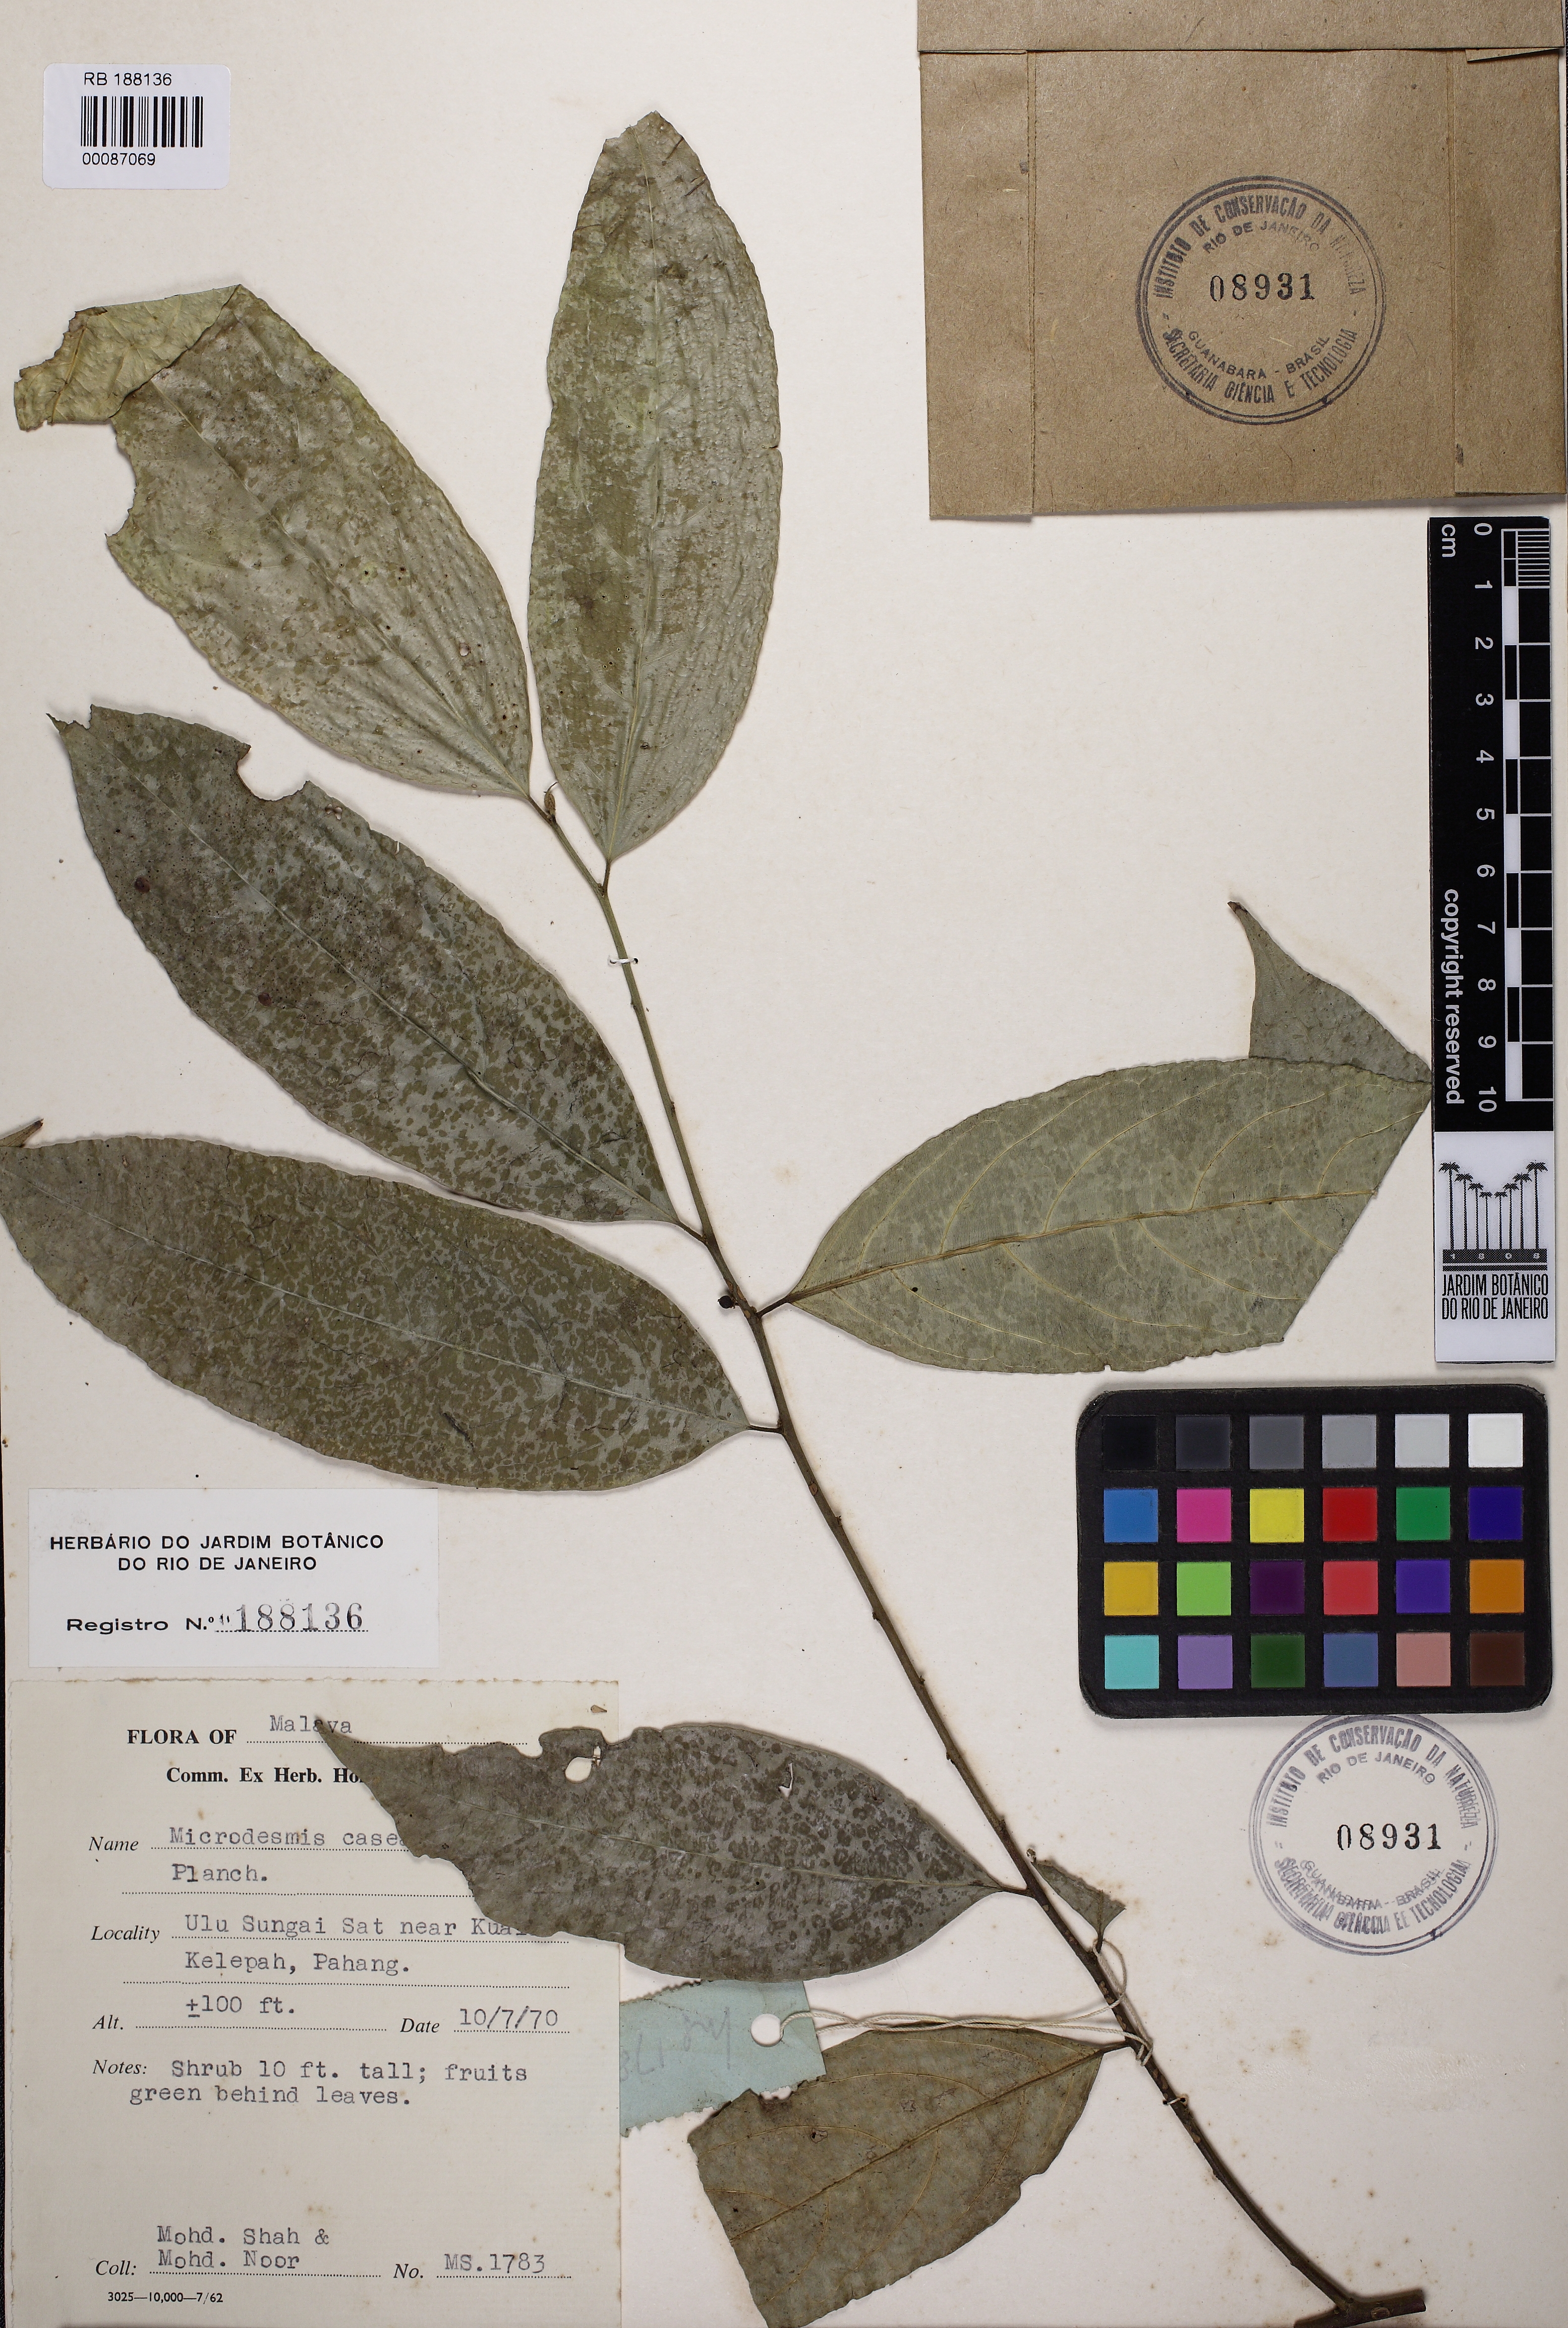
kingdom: Plantae
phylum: Tracheophyta
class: Magnoliopsida
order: Malpighiales
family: Pandaceae
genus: Microdesmis
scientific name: Microdesmis caseariifolia
